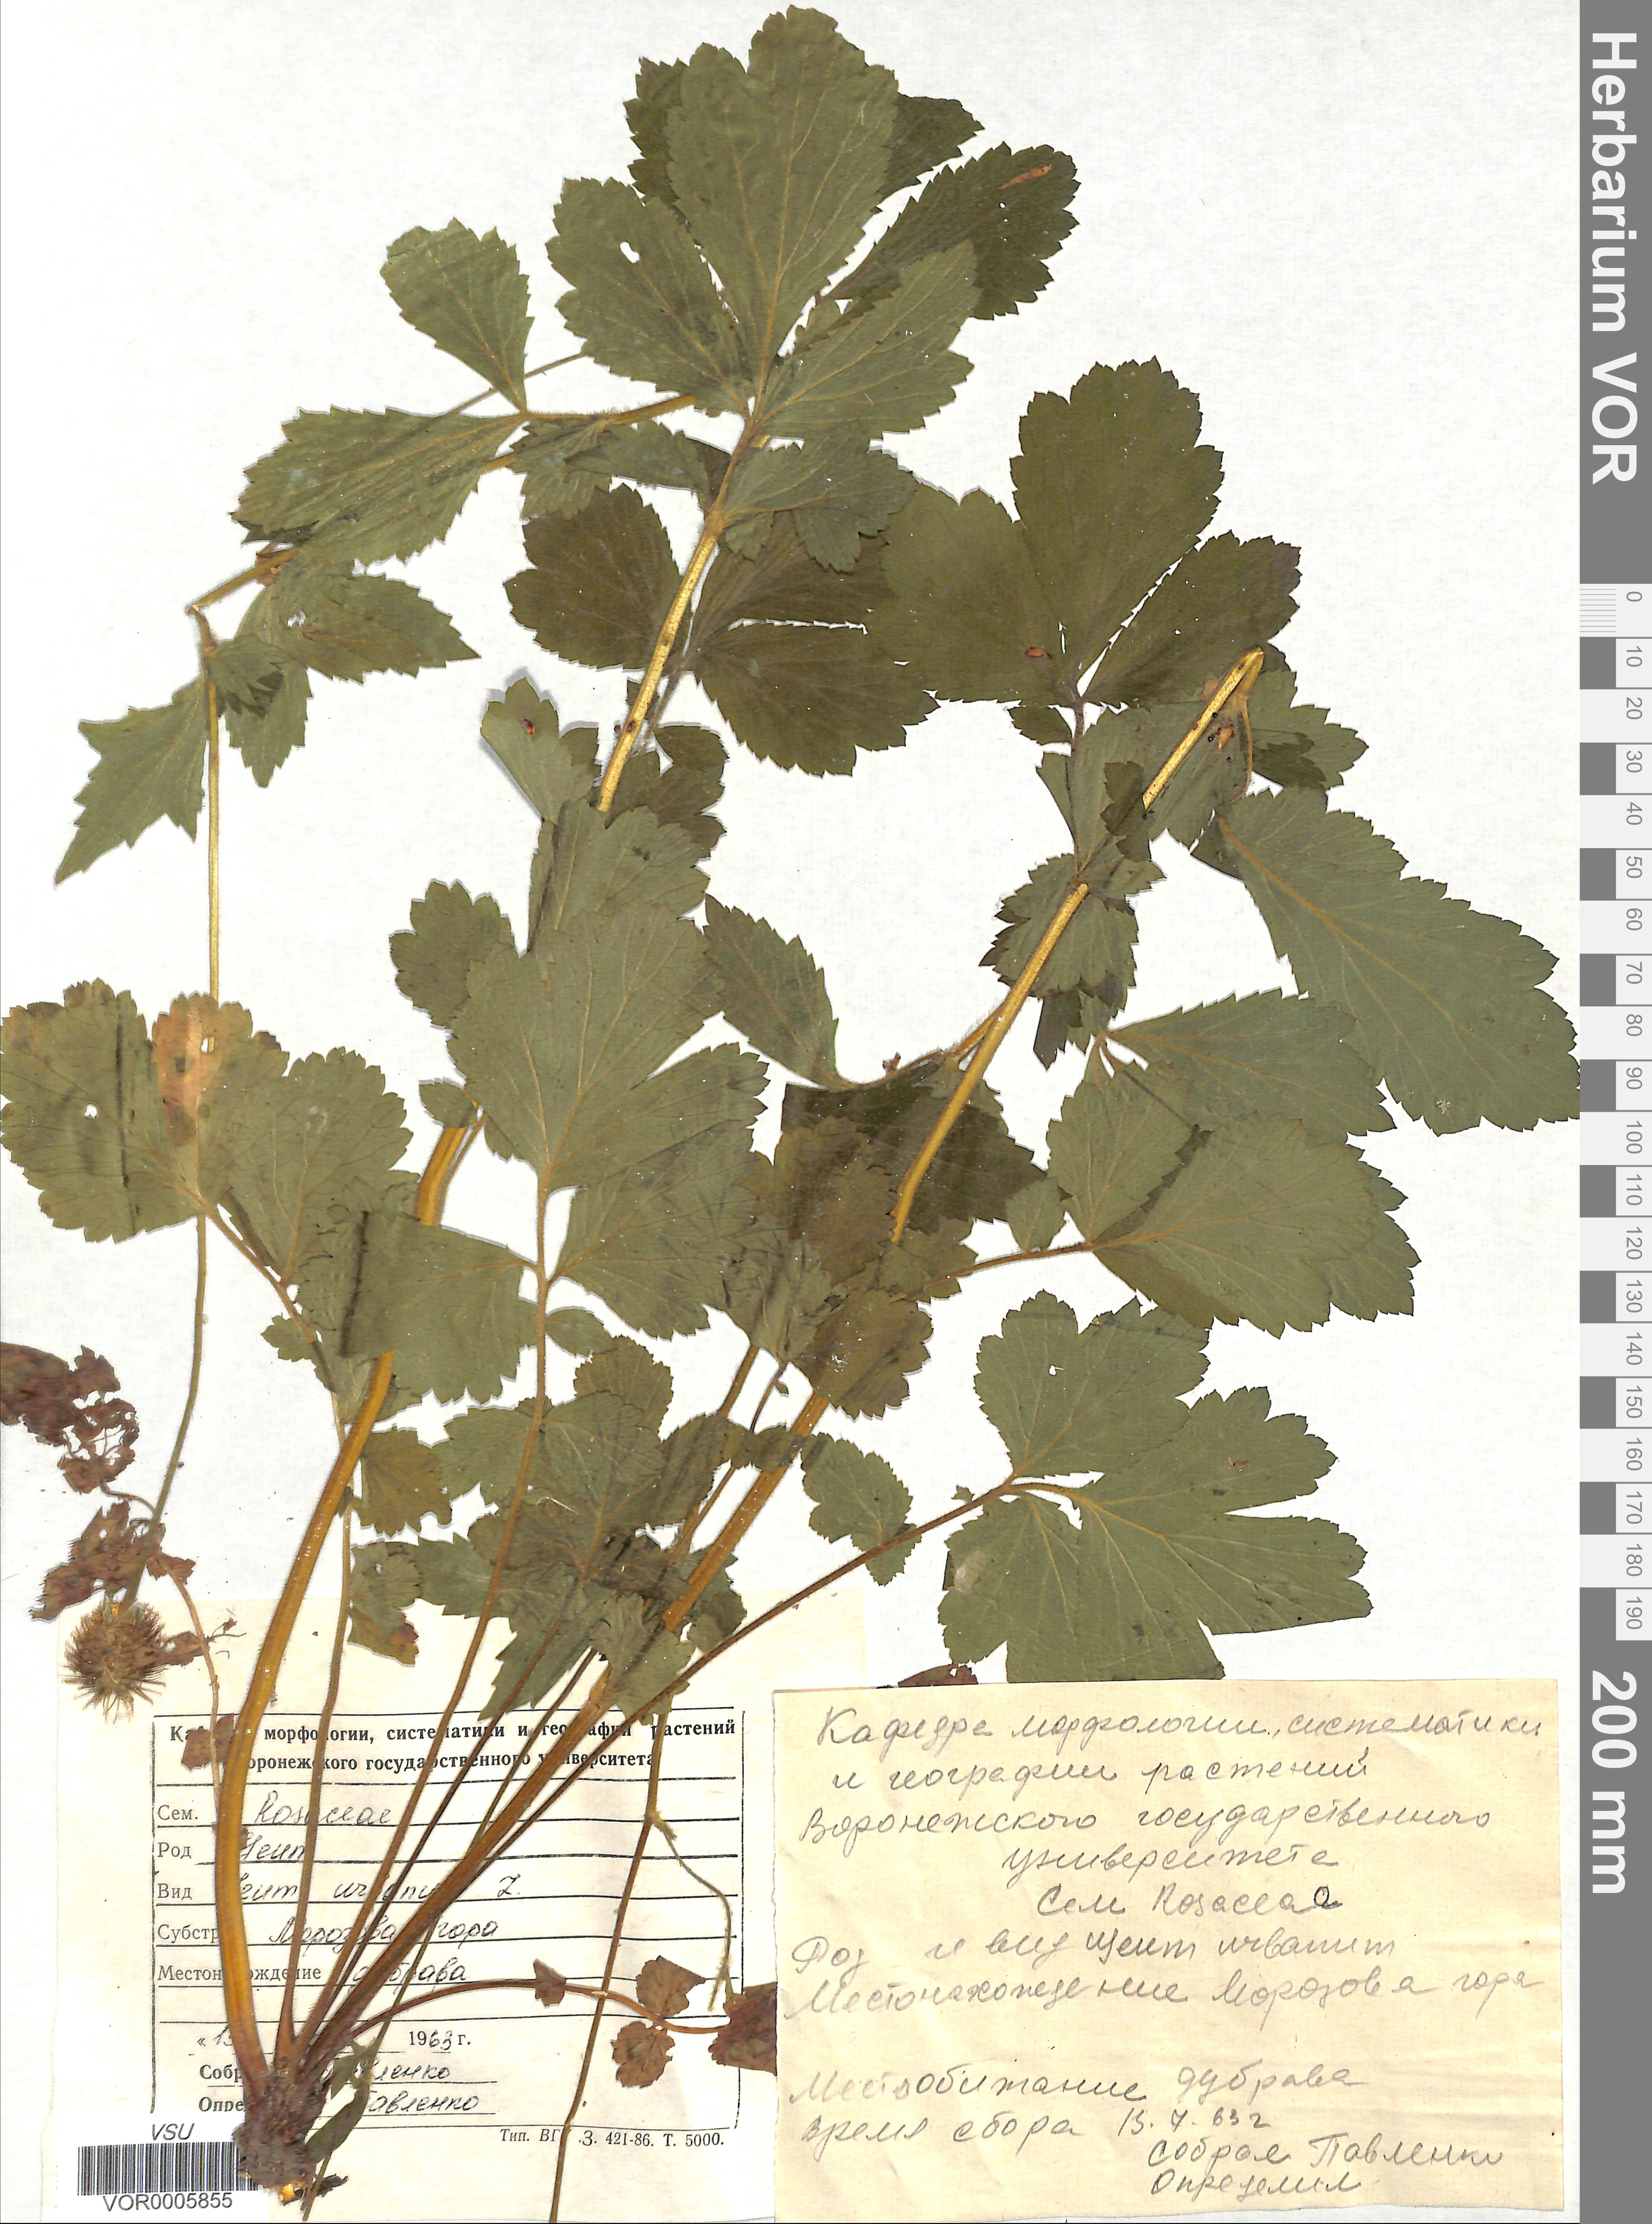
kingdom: Plantae
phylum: Tracheophyta
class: Magnoliopsida
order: Rosales
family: Rosaceae
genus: Geum
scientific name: Geum urbanum
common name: Wood avens
